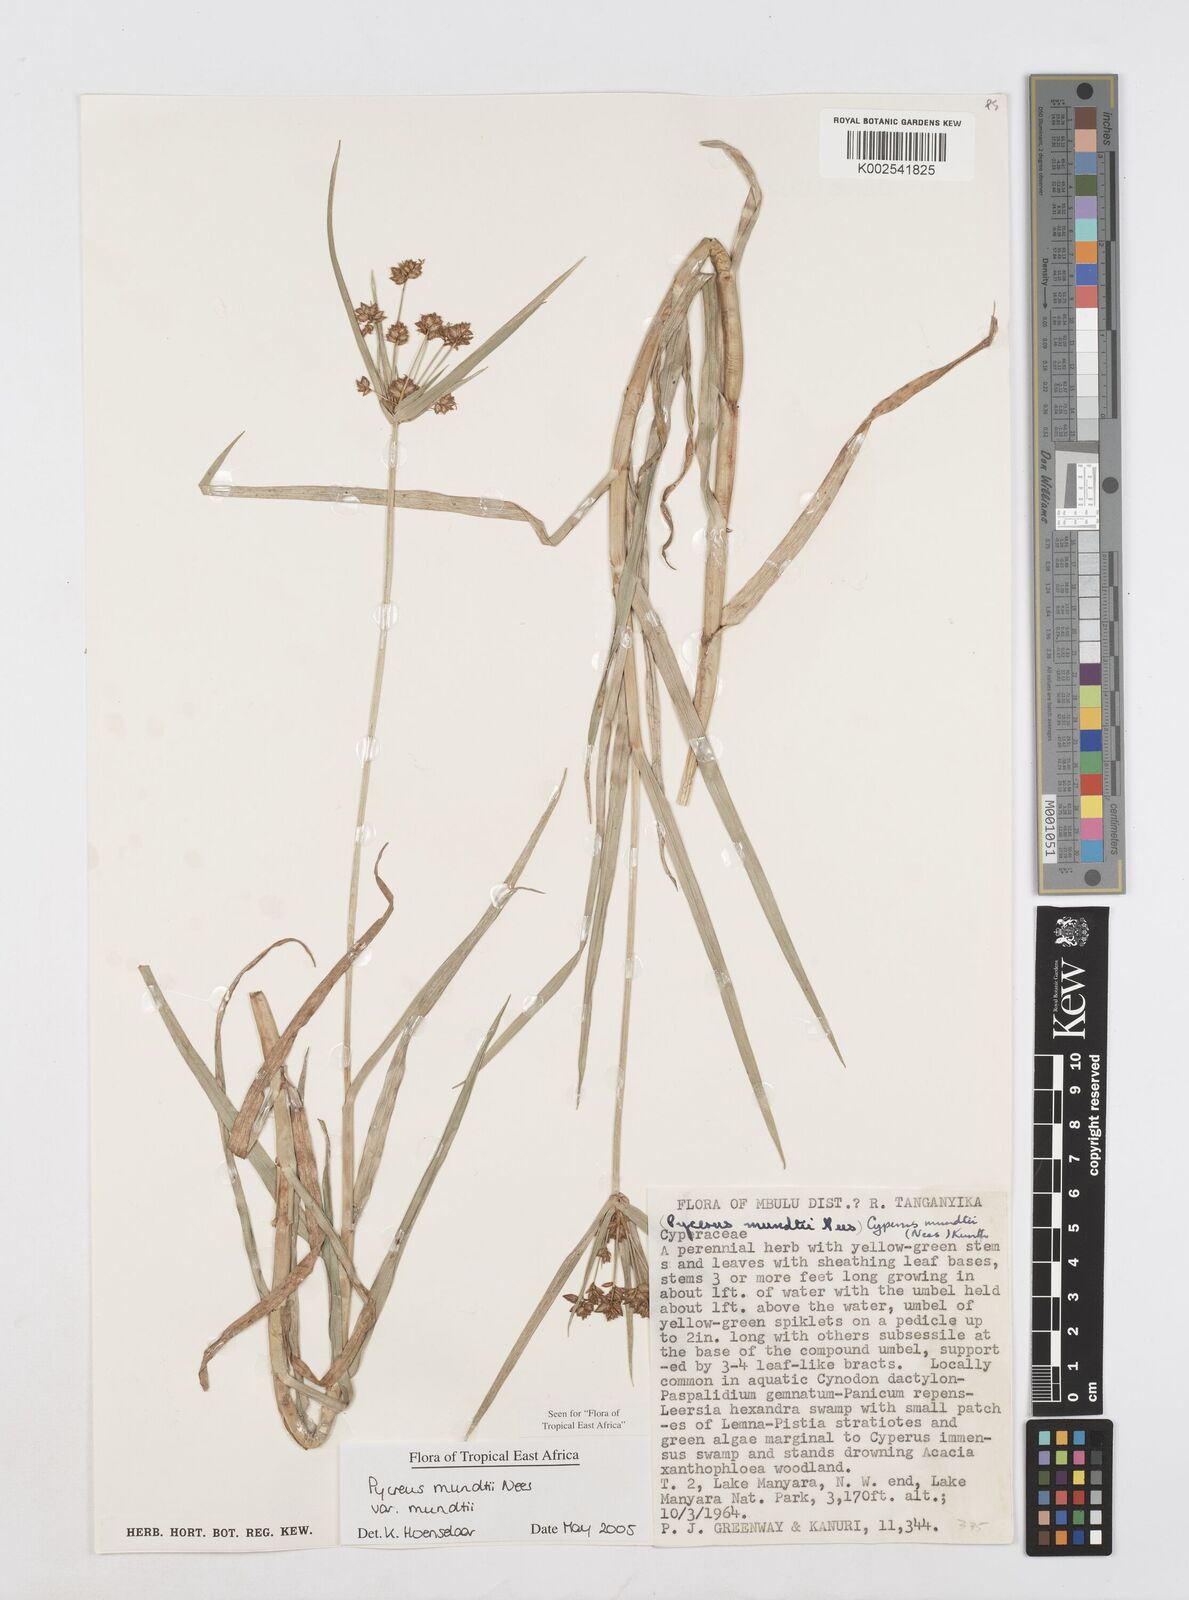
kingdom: Plantae
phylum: Tracheophyta
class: Liliopsida
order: Poales
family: Cyperaceae
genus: Cyperus
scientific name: Cyperus mundii
